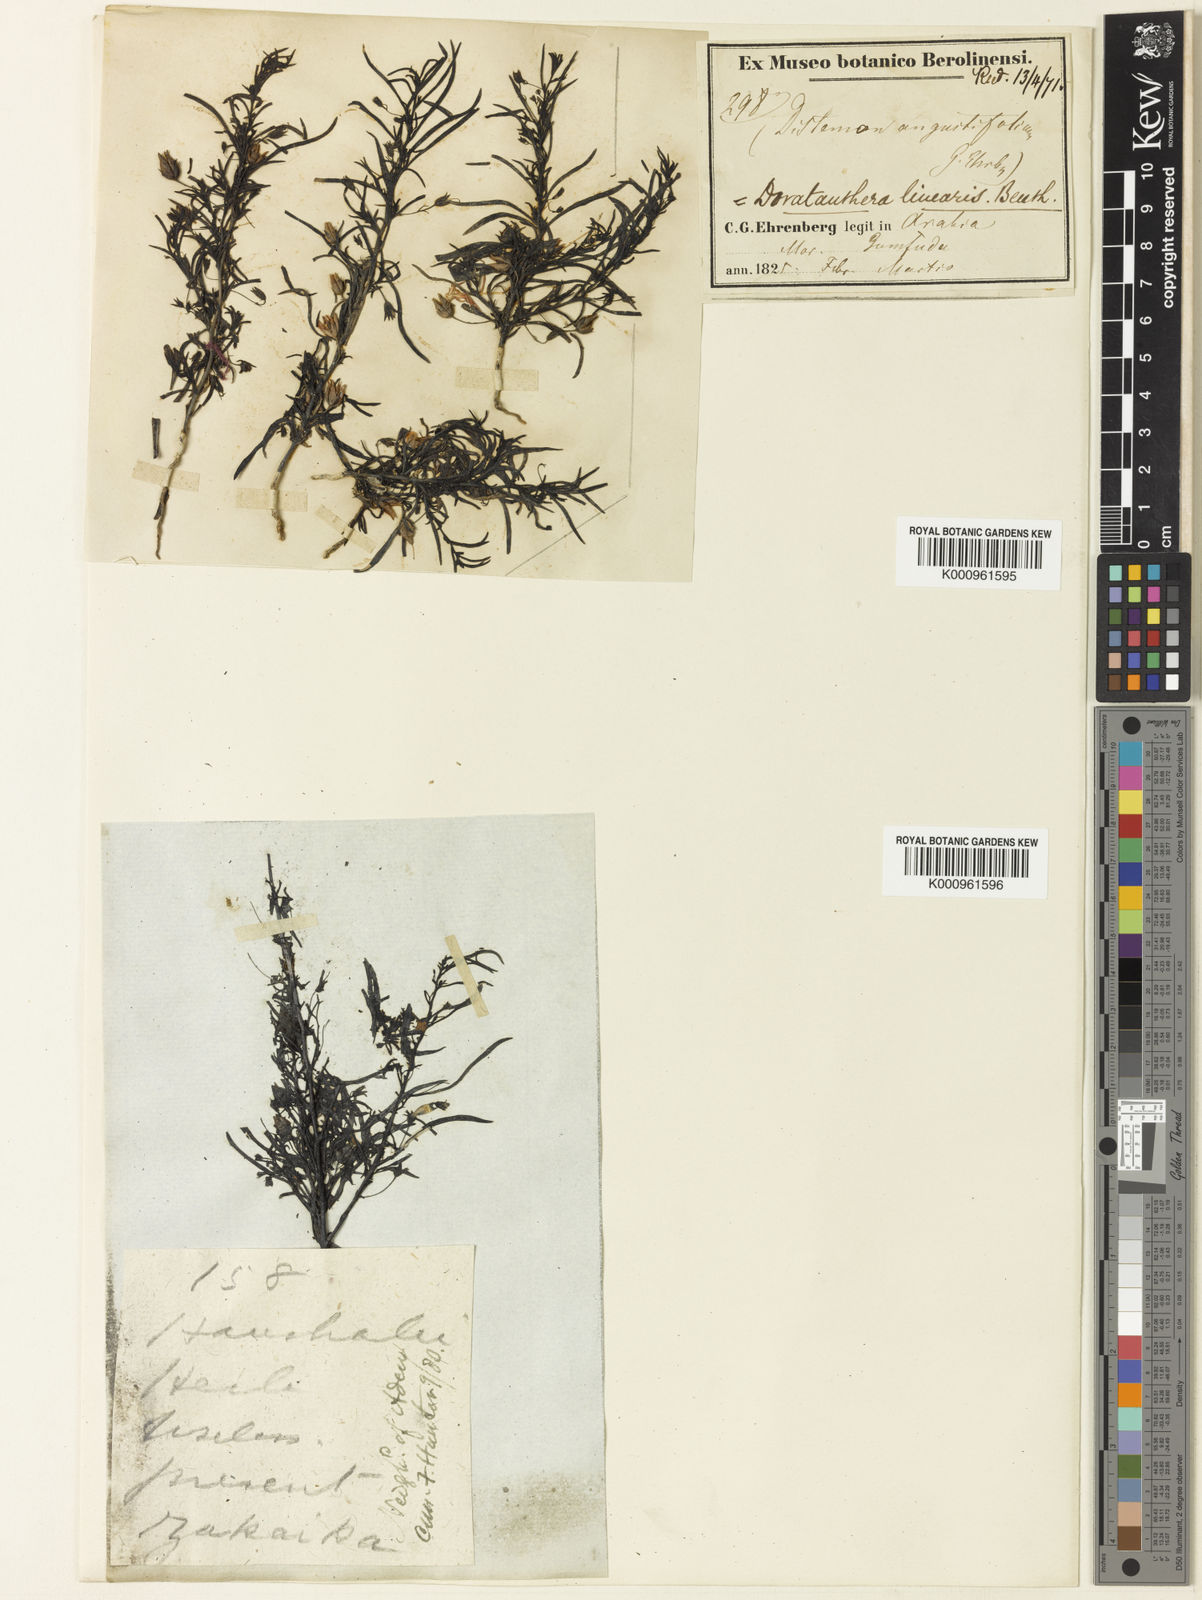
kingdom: Plantae
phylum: Tracheophyta
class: Magnoliopsida
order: Lamiales
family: Scrophulariaceae
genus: Anticharis
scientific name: Anticharis senegalensis
